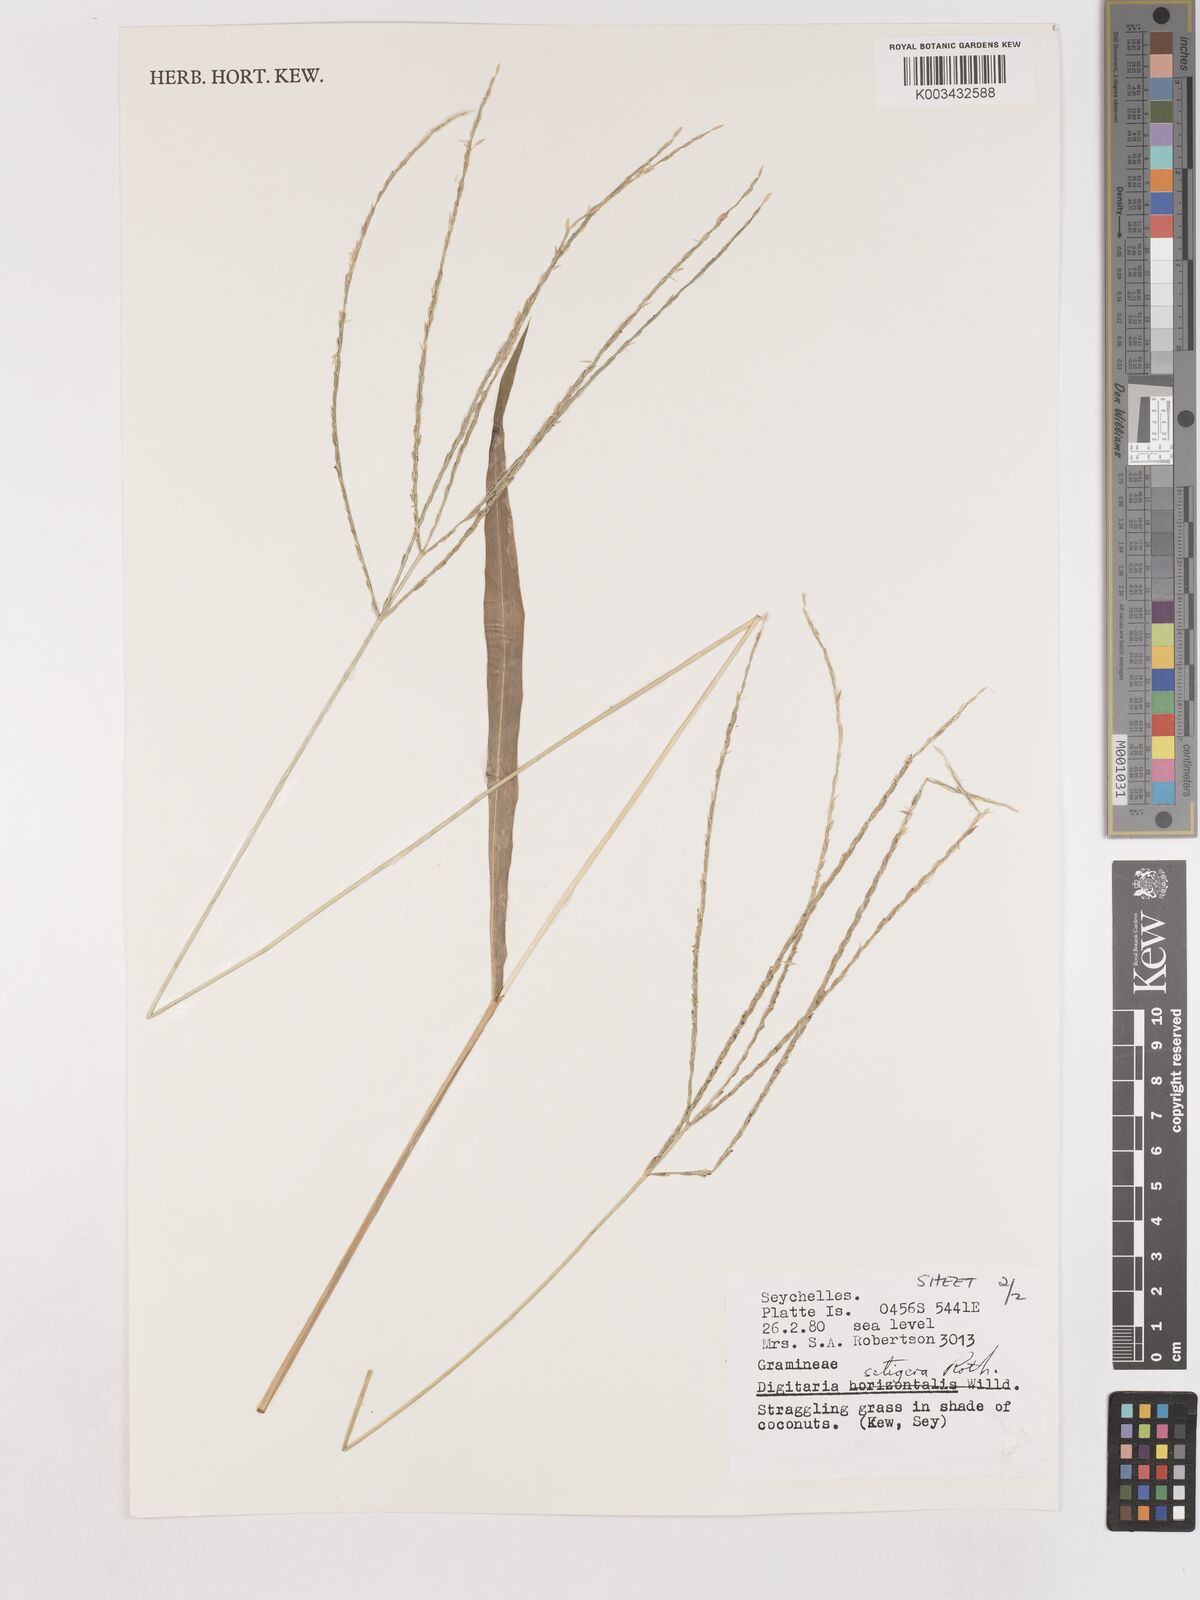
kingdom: Plantae
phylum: Tracheophyta
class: Liliopsida
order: Poales
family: Poaceae
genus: Digitaria
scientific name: Digitaria setigera
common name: East indian crabgrass
